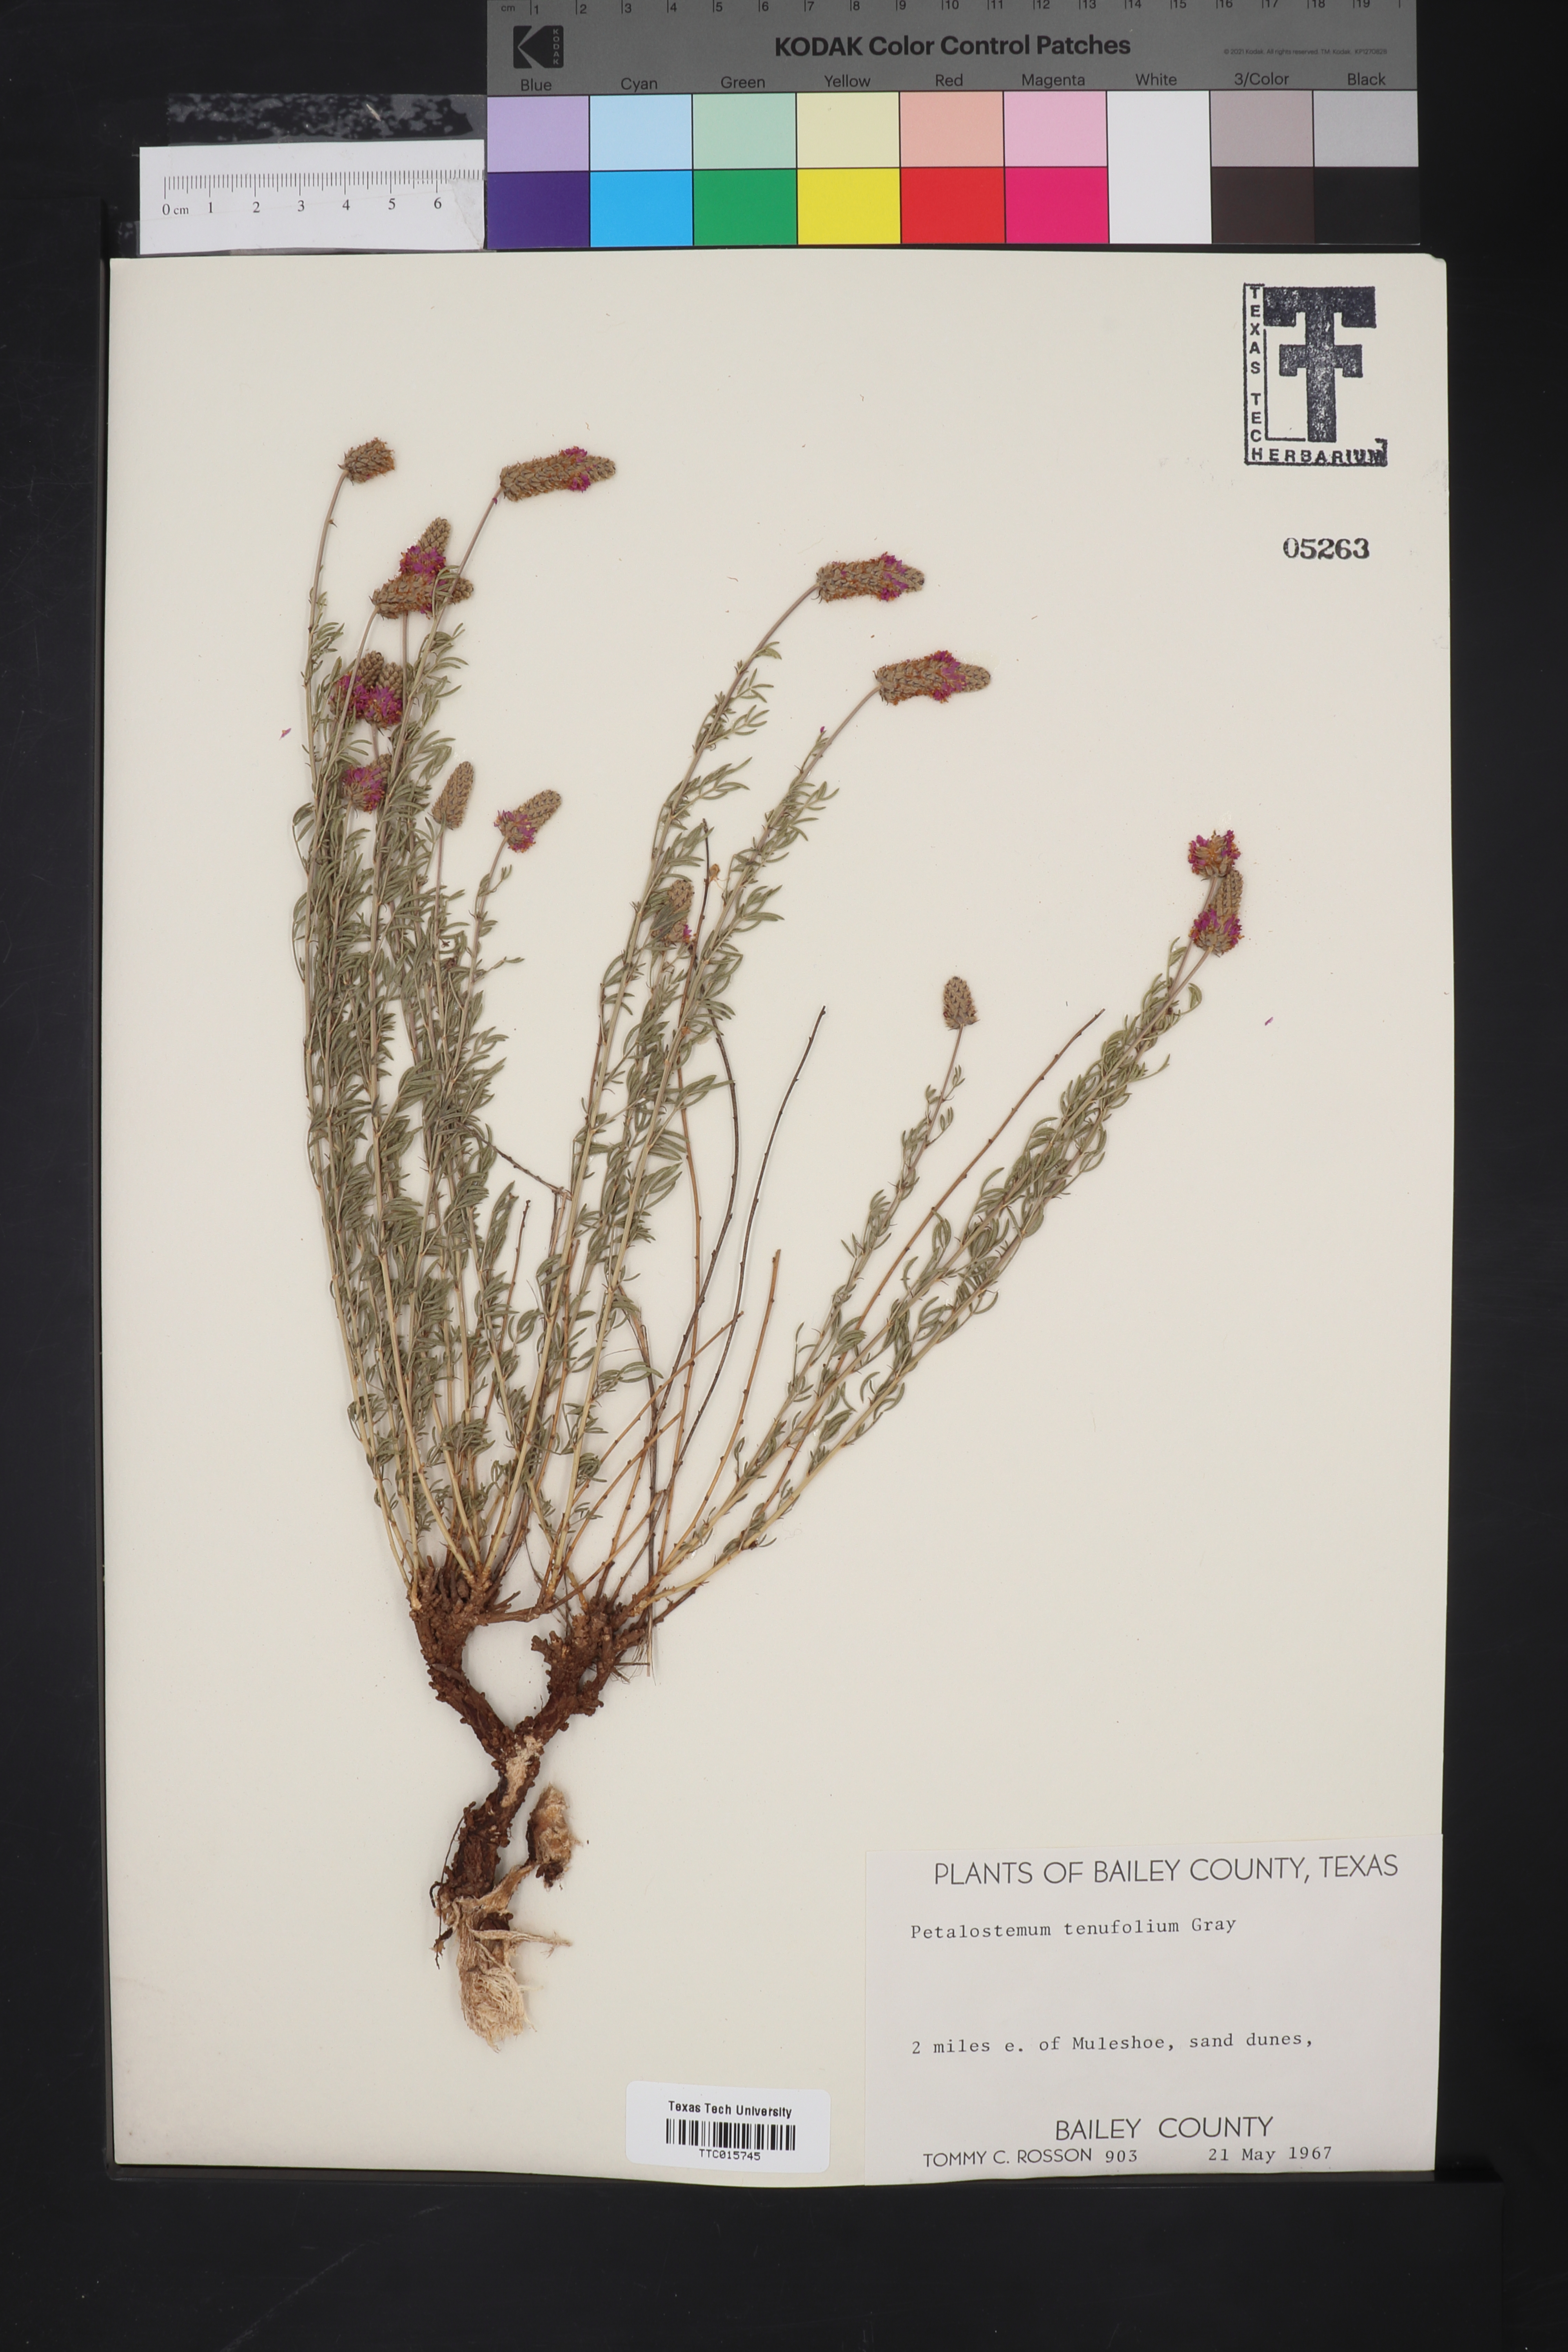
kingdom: Plantae
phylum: Tracheophyta
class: Magnoliopsida
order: Fabales
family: Fabaceae
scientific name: Fabaceae
